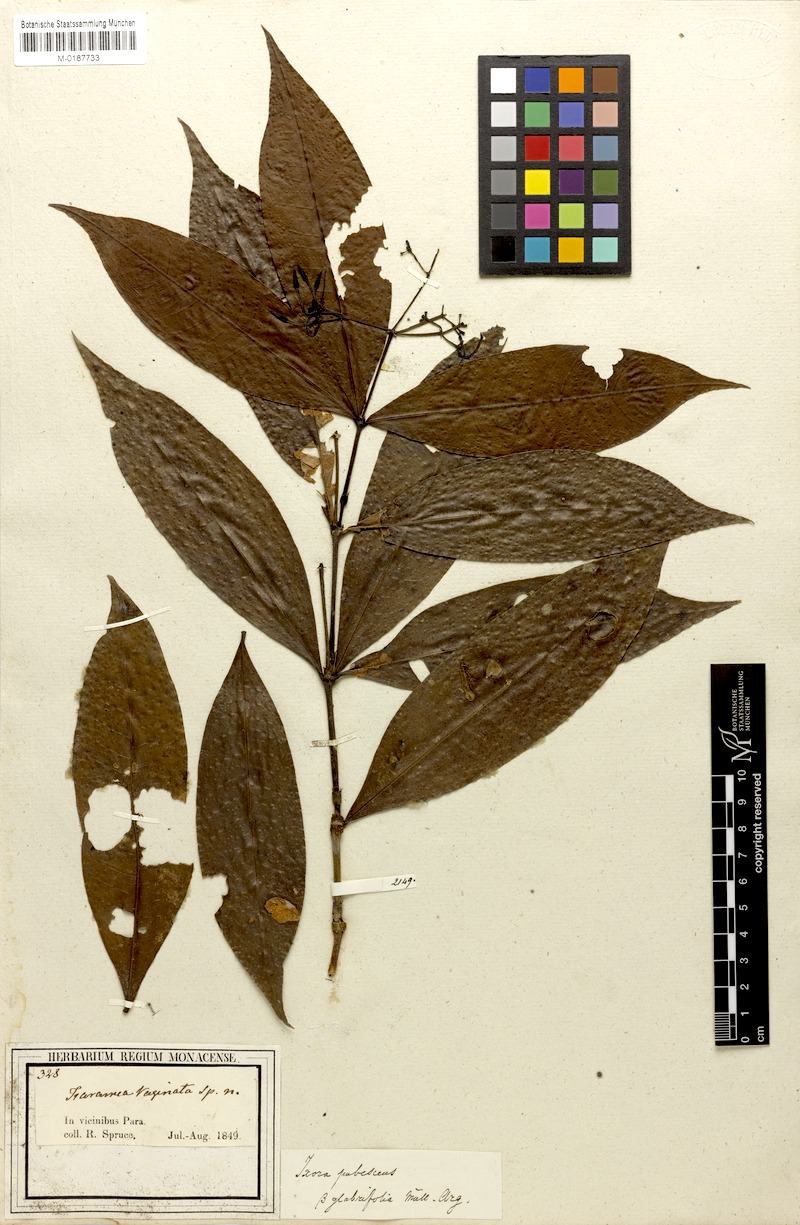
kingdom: Plantae
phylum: Tracheophyta
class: Magnoliopsida
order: Gentianales
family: Rubiaceae
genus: Ixora
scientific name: Ixora pubescens
